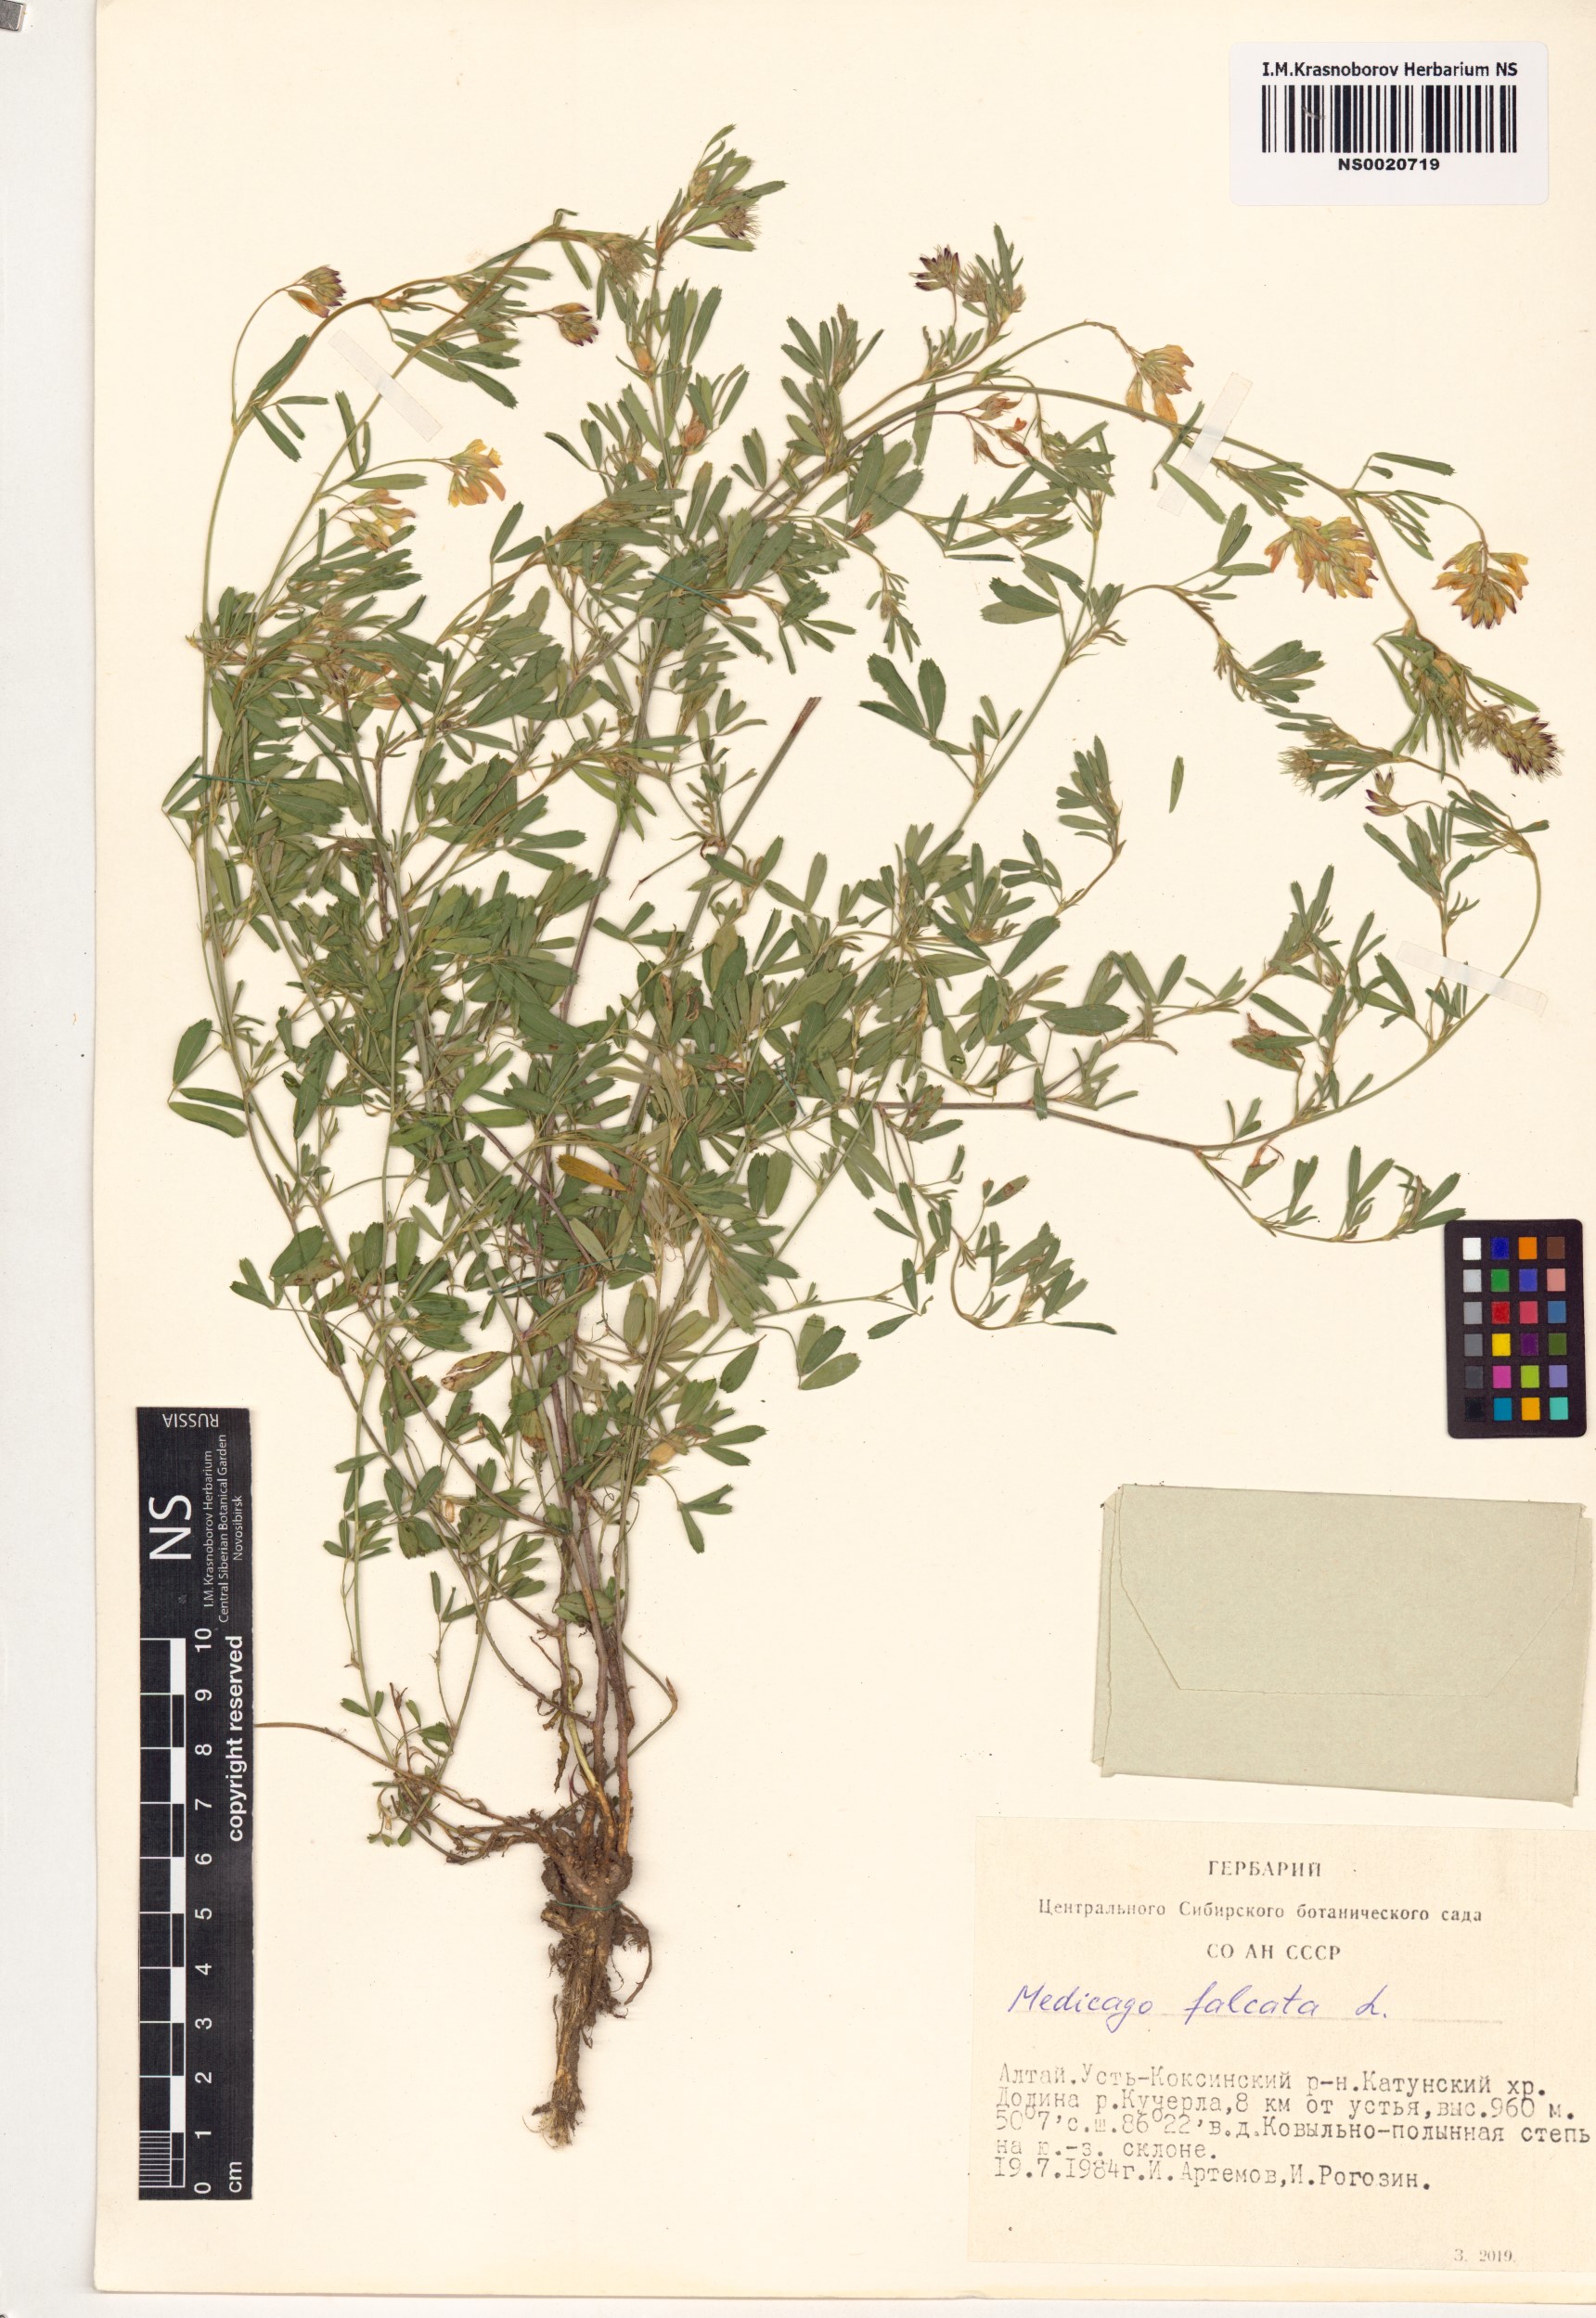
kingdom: Plantae
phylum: Tracheophyta
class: Magnoliopsida
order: Fabales
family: Fabaceae
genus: Medicago
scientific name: Medicago falcata
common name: Sickle medick
